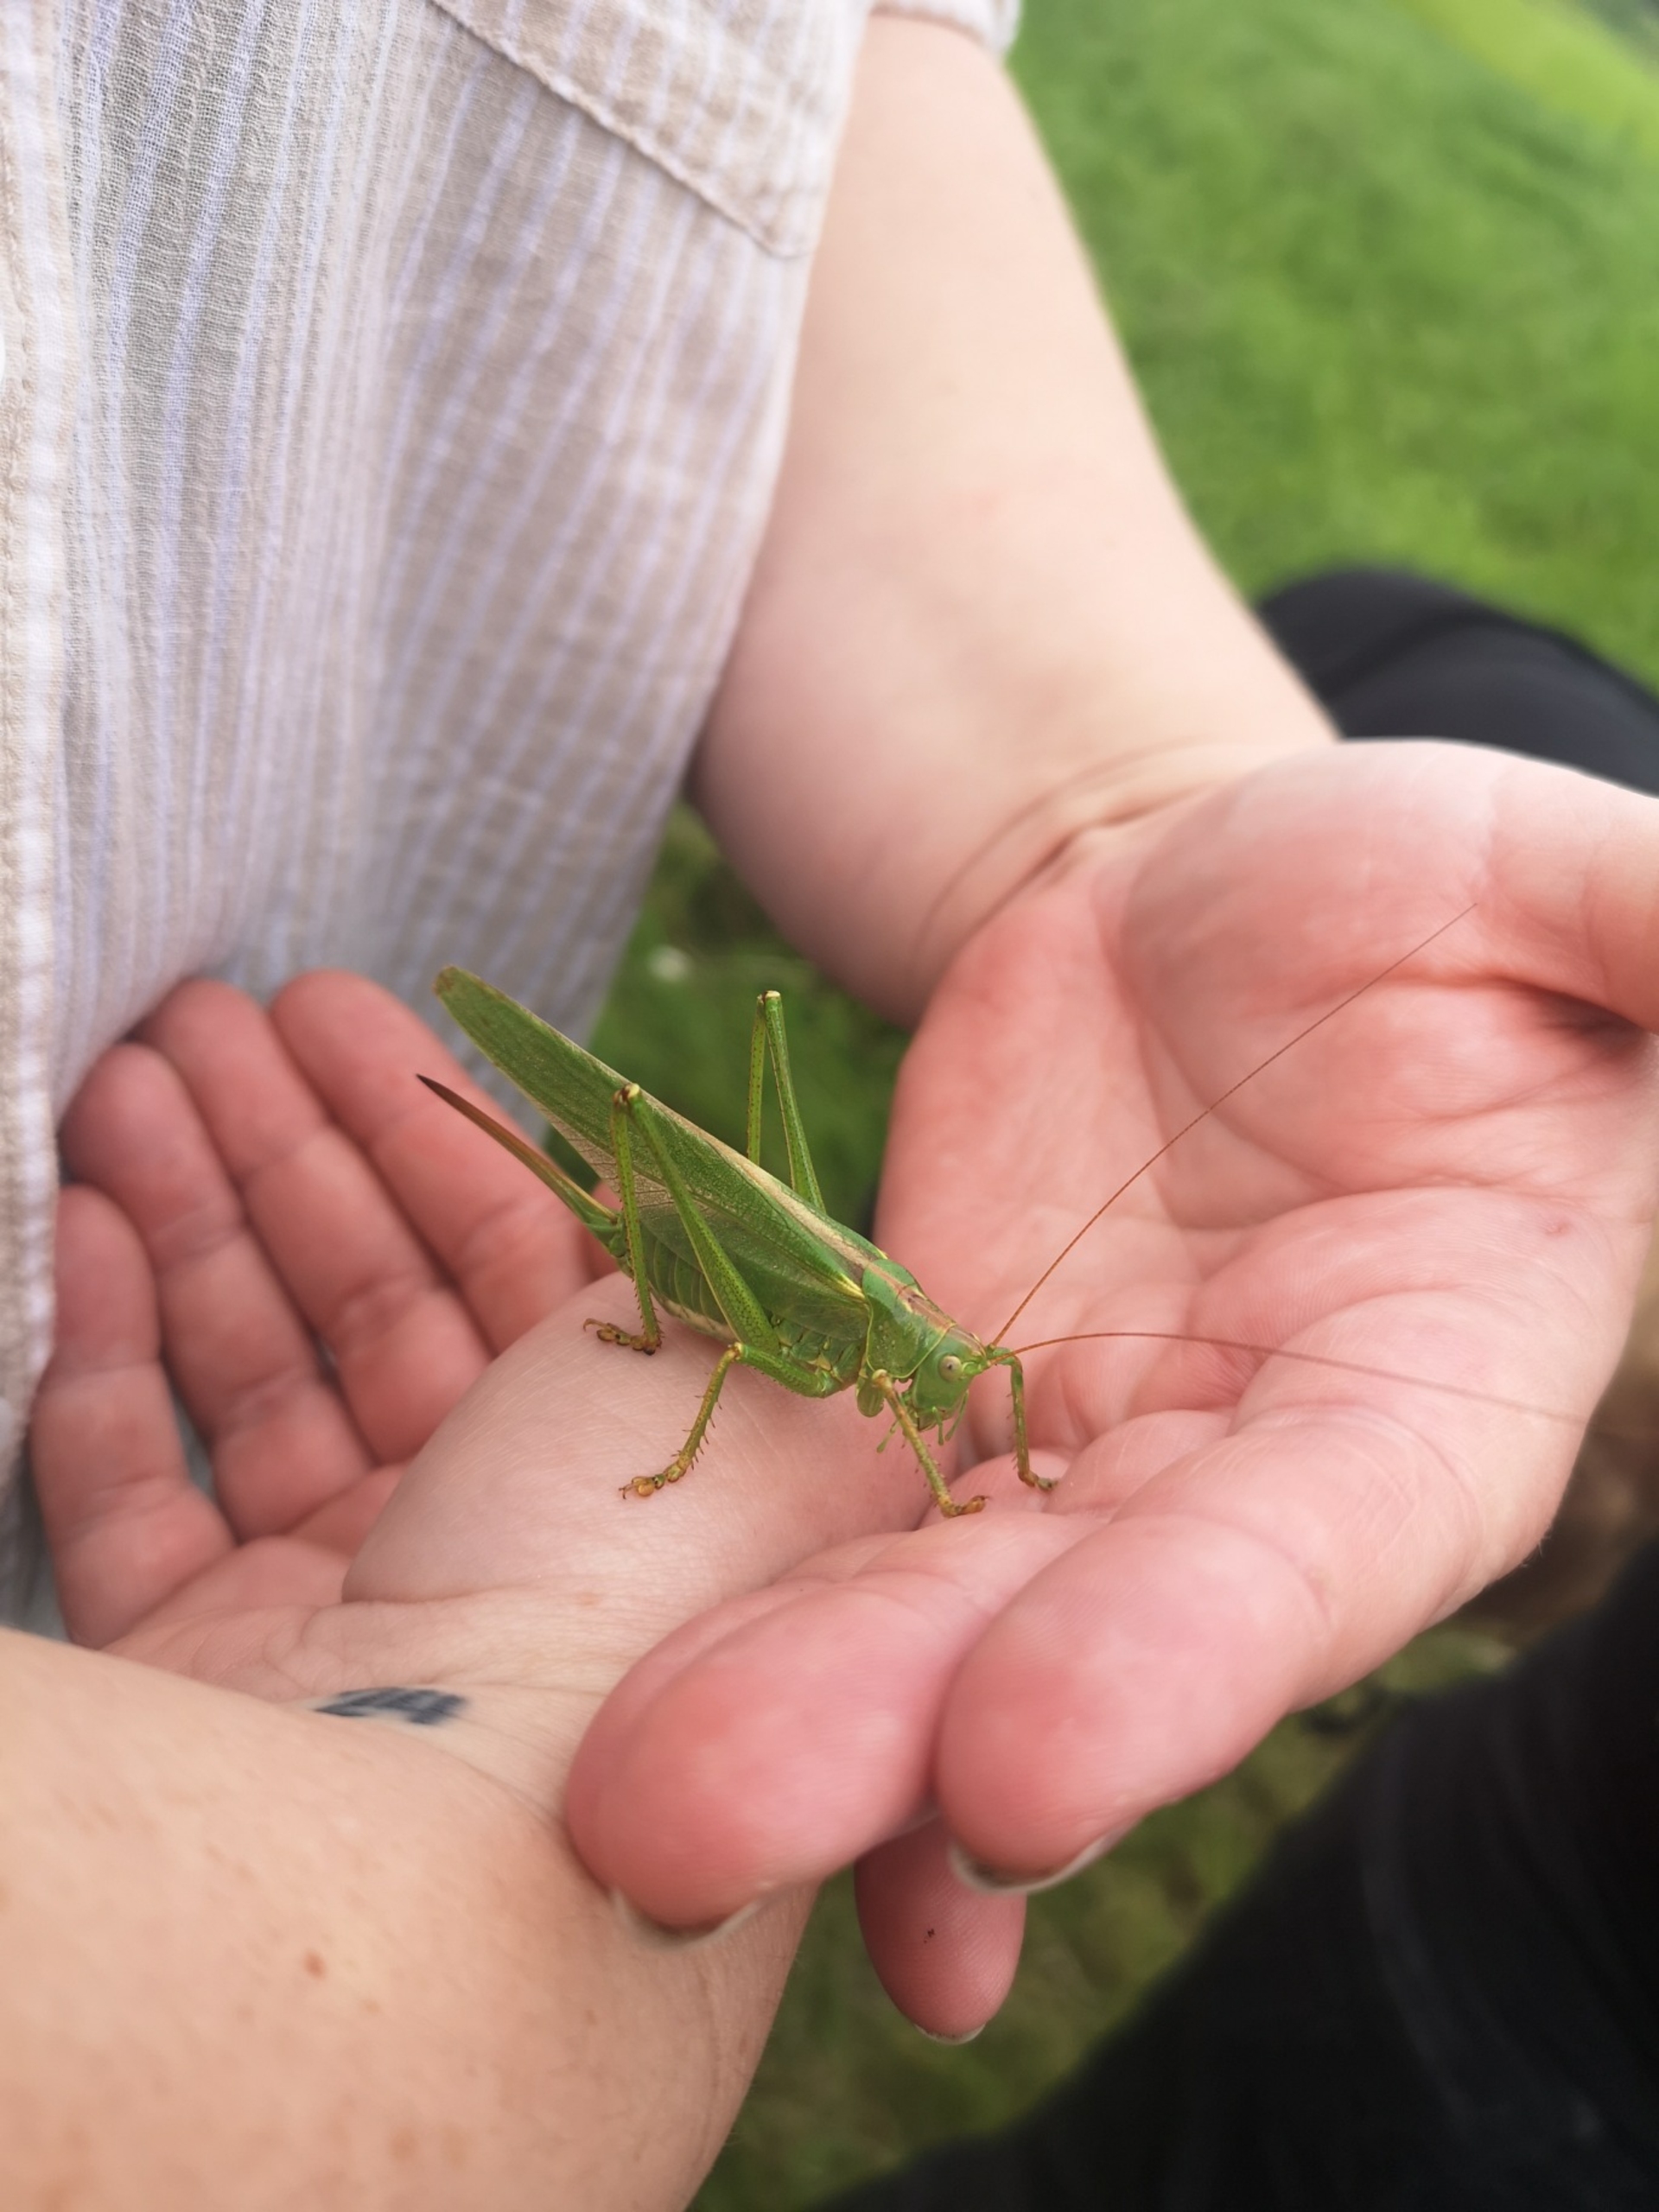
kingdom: Animalia
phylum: Arthropoda
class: Insecta
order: Orthoptera
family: Tettigoniidae
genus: Tettigonia
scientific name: Tettigonia viridissima
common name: Stor grøn løvgræshoppe
